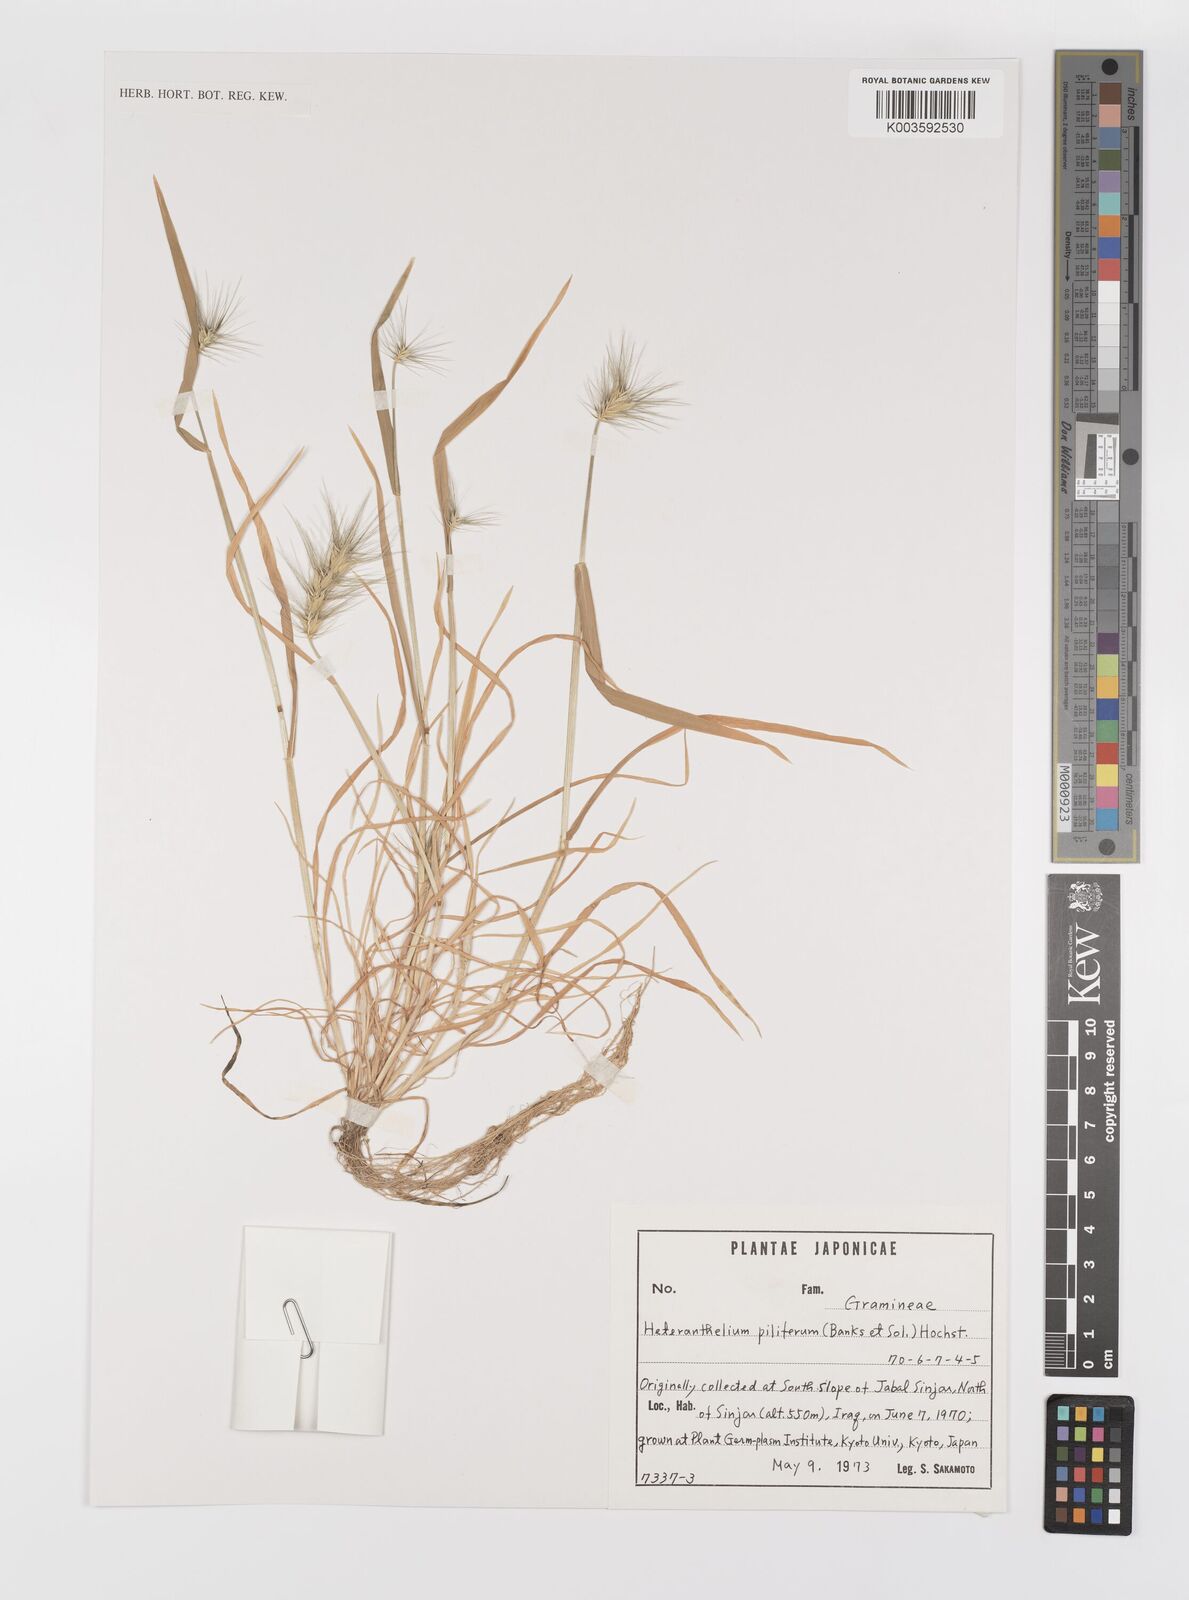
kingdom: Plantae
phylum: Tracheophyta
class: Liliopsida
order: Poales
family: Poaceae
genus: Heteranthelium
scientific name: Heteranthelium piliferum
